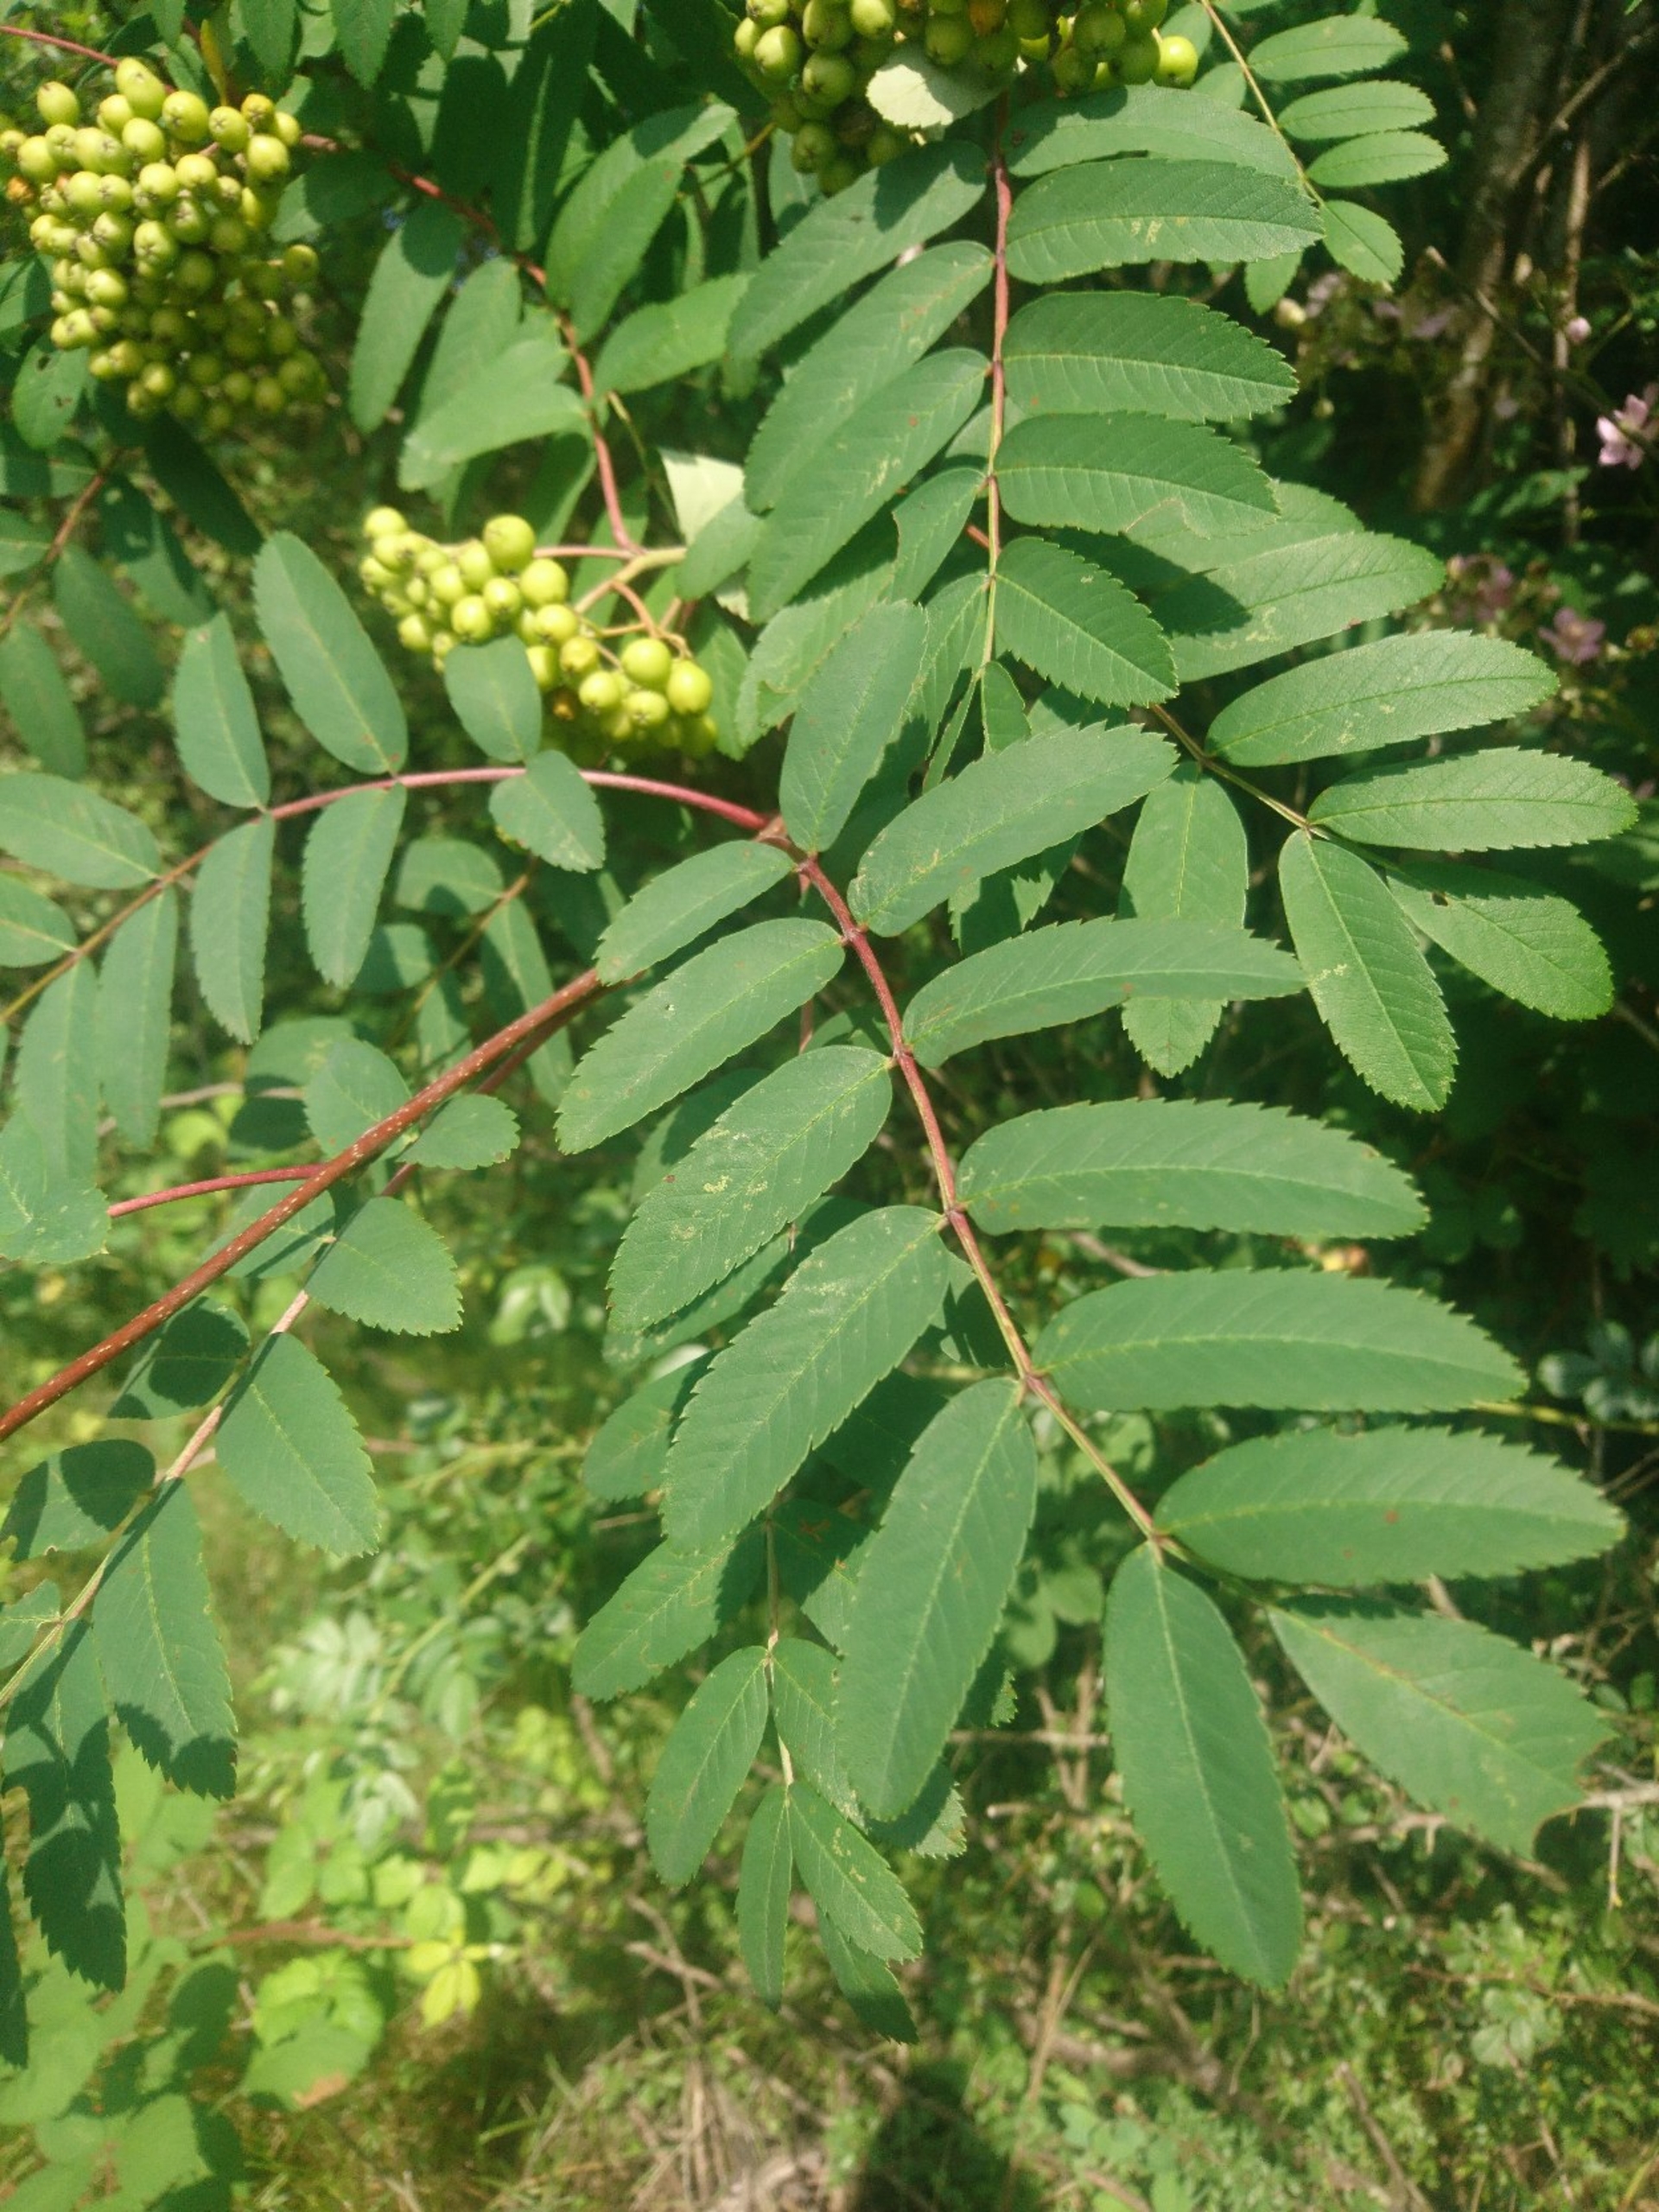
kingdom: Plantae
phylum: Tracheophyta
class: Magnoliopsida
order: Rosales
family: Rosaceae
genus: Sorbus
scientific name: Sorbus aucuparia
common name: Almindelig røn
